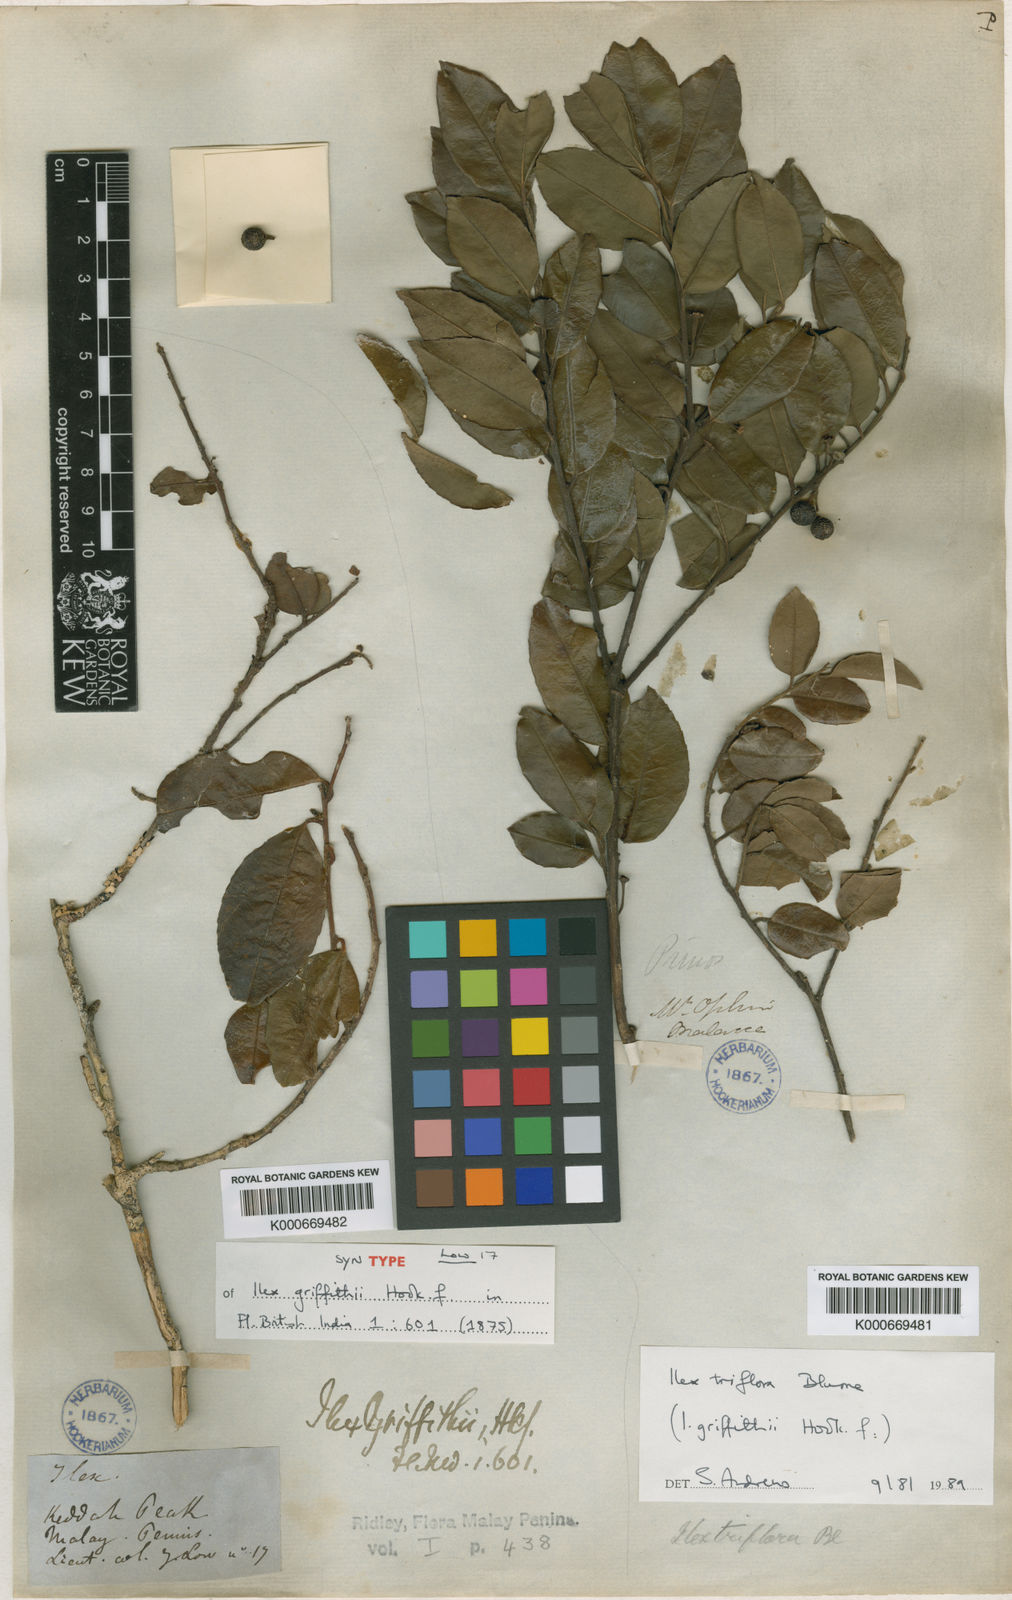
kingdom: Plantae
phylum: Tracheophyta
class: Magnoliopsida
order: Aquifoliales
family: Aquifoliaceae
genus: Ilex
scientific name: Ilex triflora
